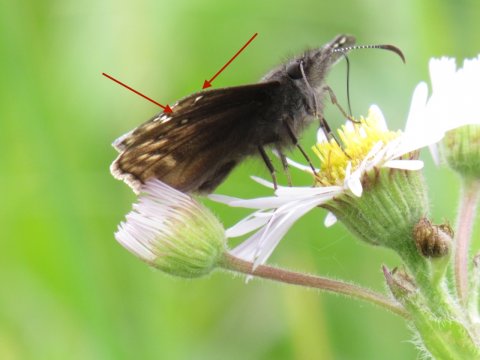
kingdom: Animalia
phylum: Arthropoda
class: Insecta
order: Lepidoptera
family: Hesperiidae
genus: Gesta
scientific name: Gesta
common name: Juvenal's Duskywing
